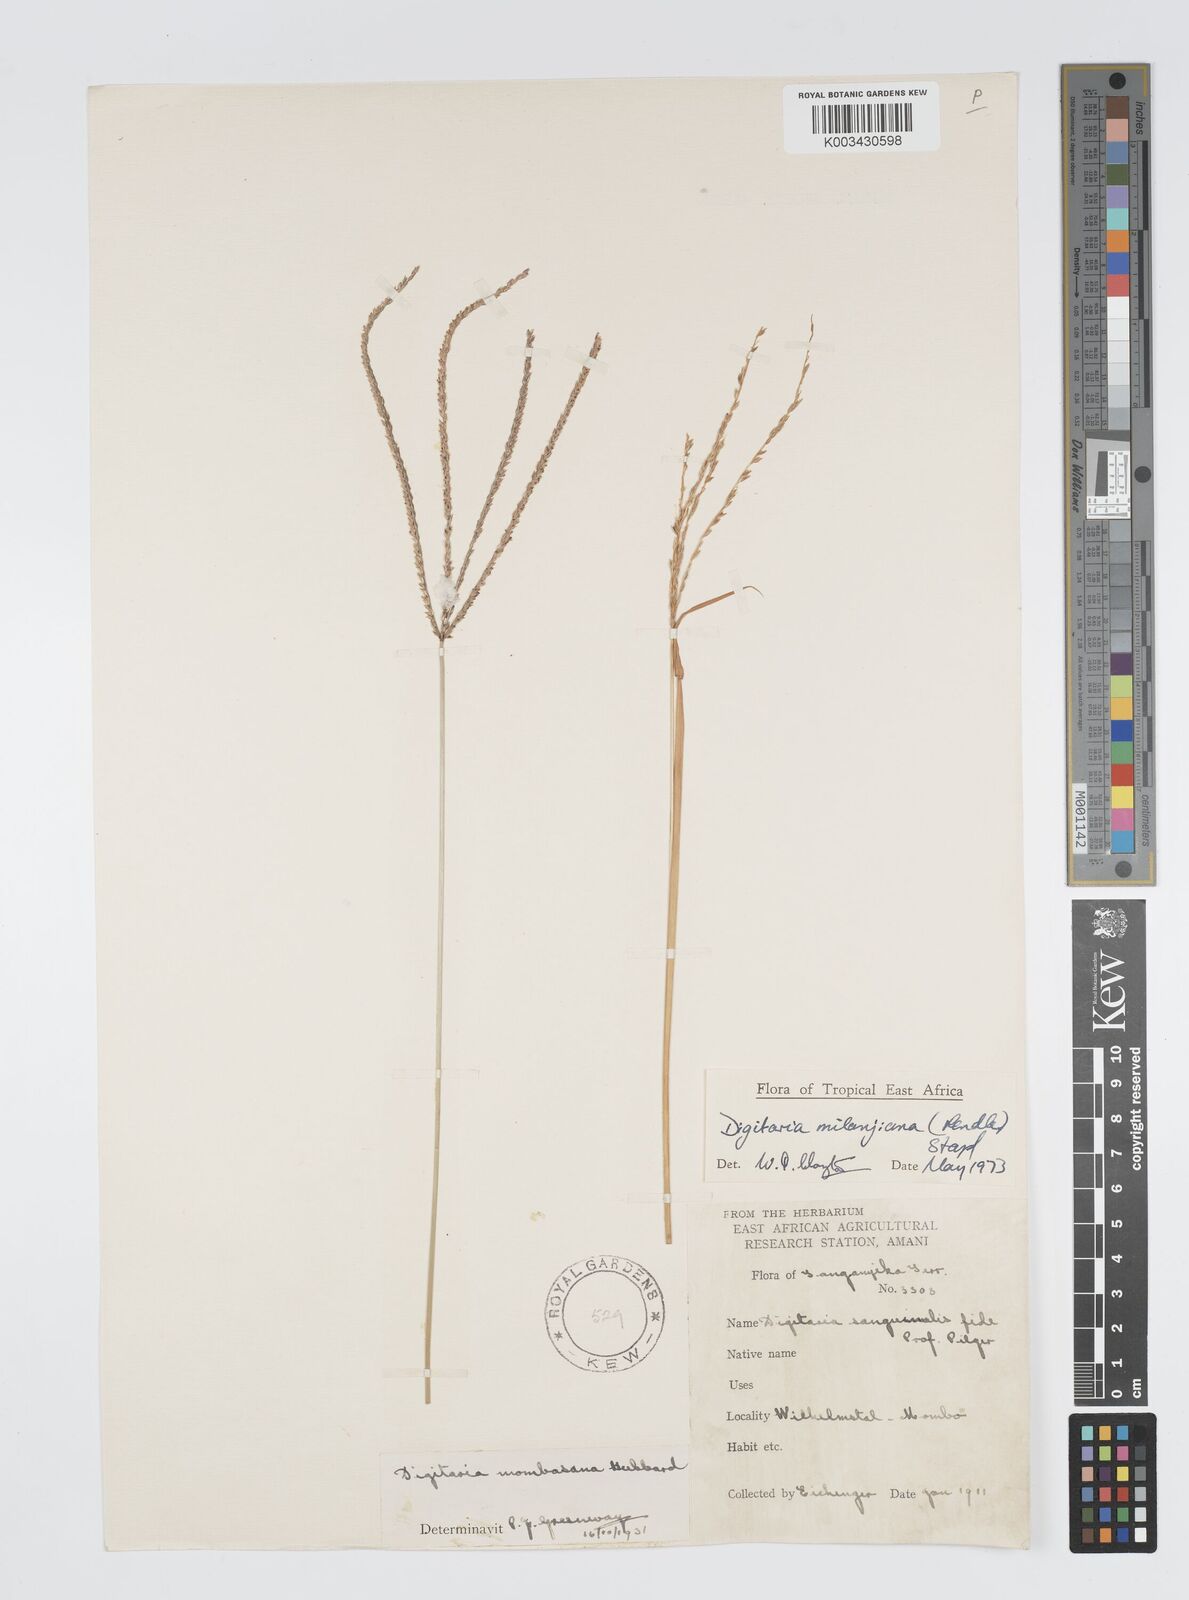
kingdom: Plantae
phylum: Tracheophyta
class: Liliopsida
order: Poales
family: Poaceae
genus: Digitaria
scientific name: Digitaria milanjiana
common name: Madagascar crabgrass
